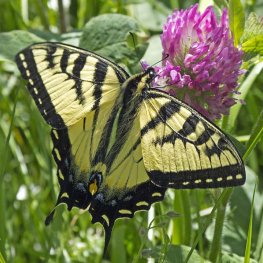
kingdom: Animalia
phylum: Arthropoda
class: Insecta
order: Lepidoptera
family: Papilionidae
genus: Pterourus
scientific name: Pterourus canadensis
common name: Canadian Tiger Swallowtail
